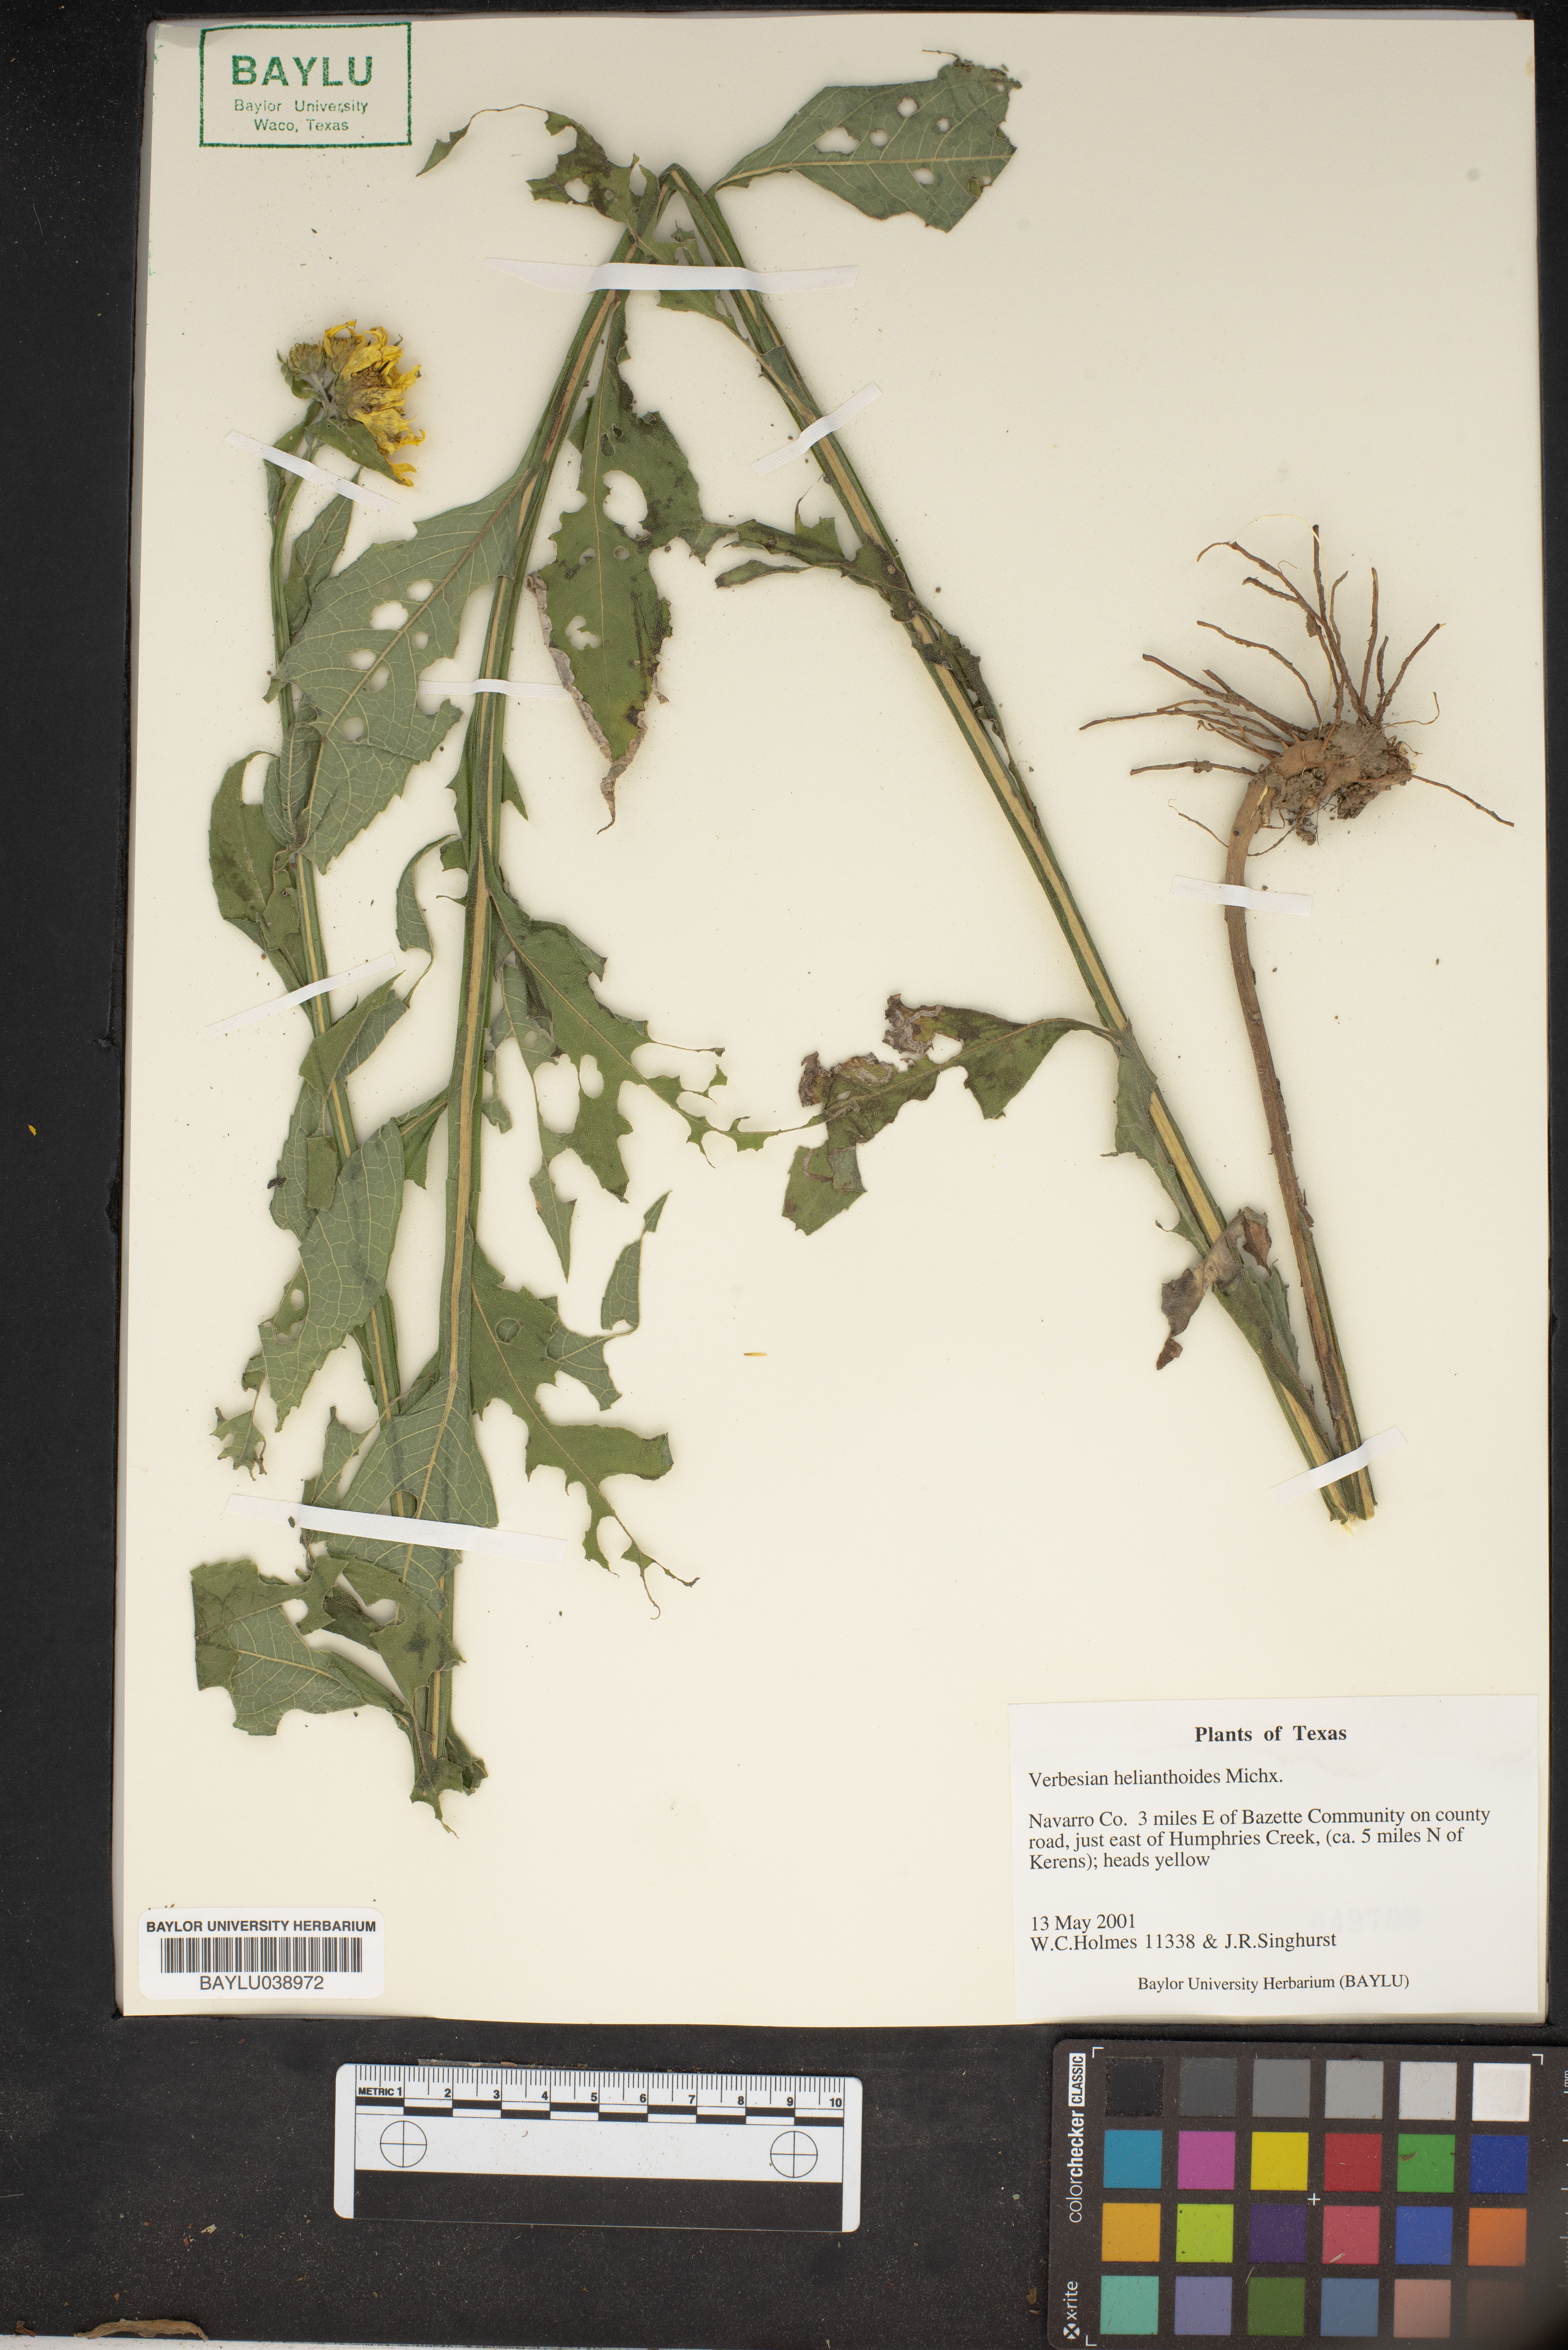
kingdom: Plantae
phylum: Tracheophyta
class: Magnoliopsida
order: Asterales
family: Asteraceae
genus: Verbesina
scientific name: Verbesina helianthoides
